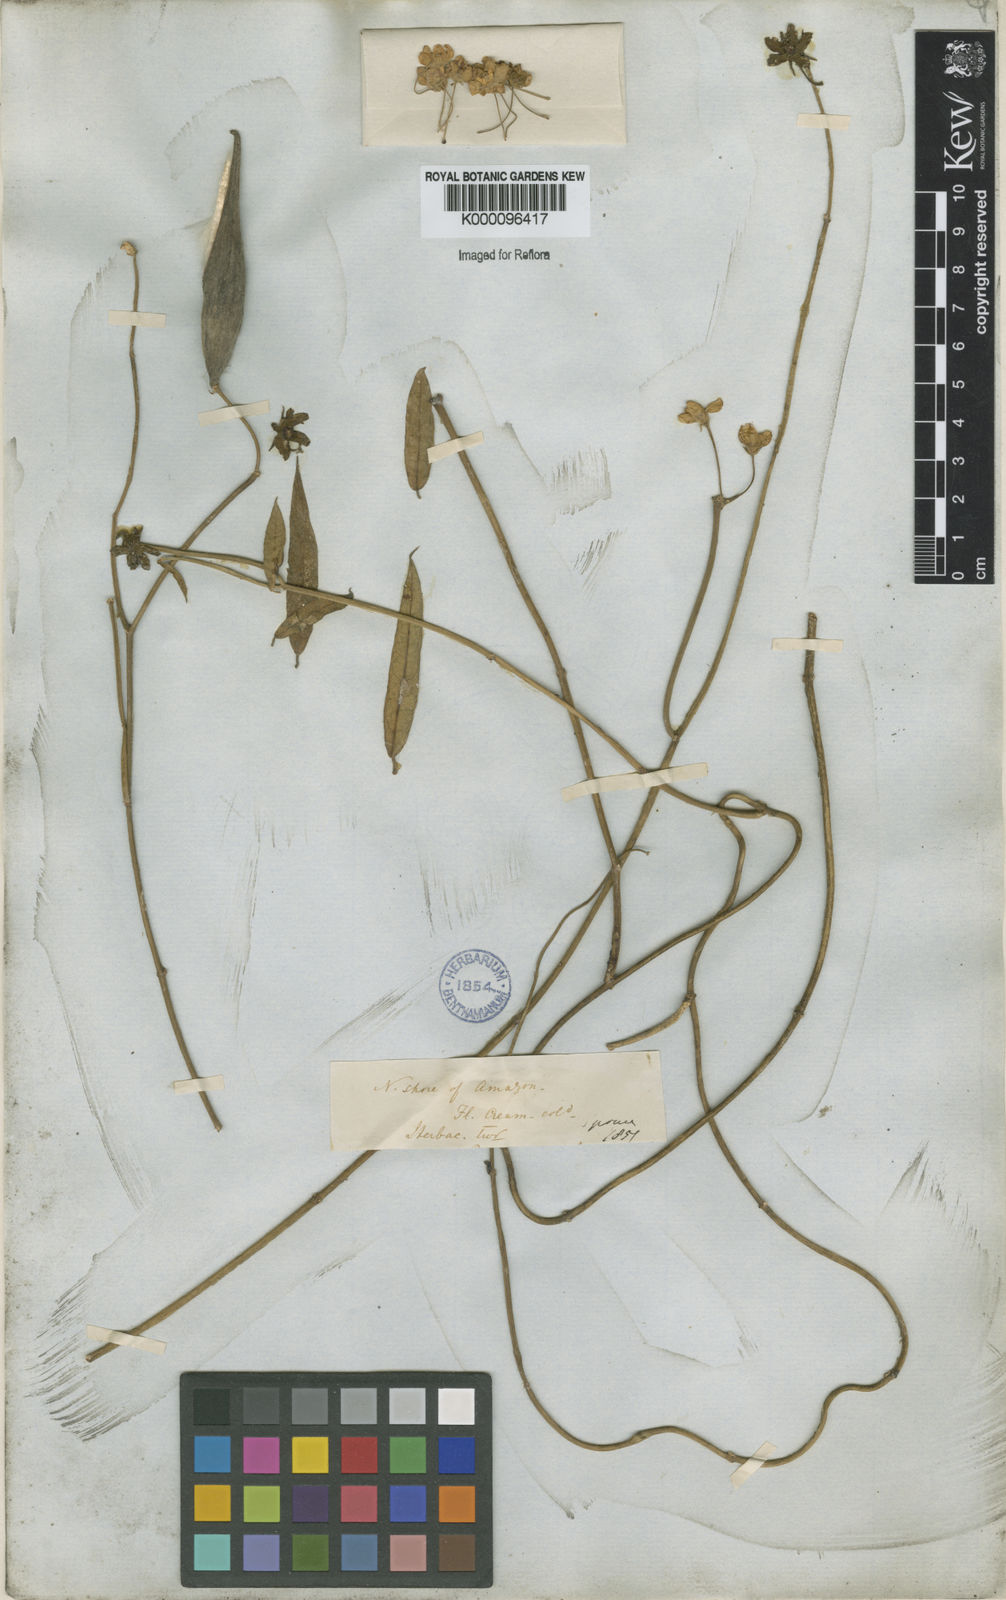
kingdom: Plantae
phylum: Tracheophyta
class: Magnoliopsida
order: Gentianales
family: Apocynaceae
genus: Funastrum
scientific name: Funastrum clausum
